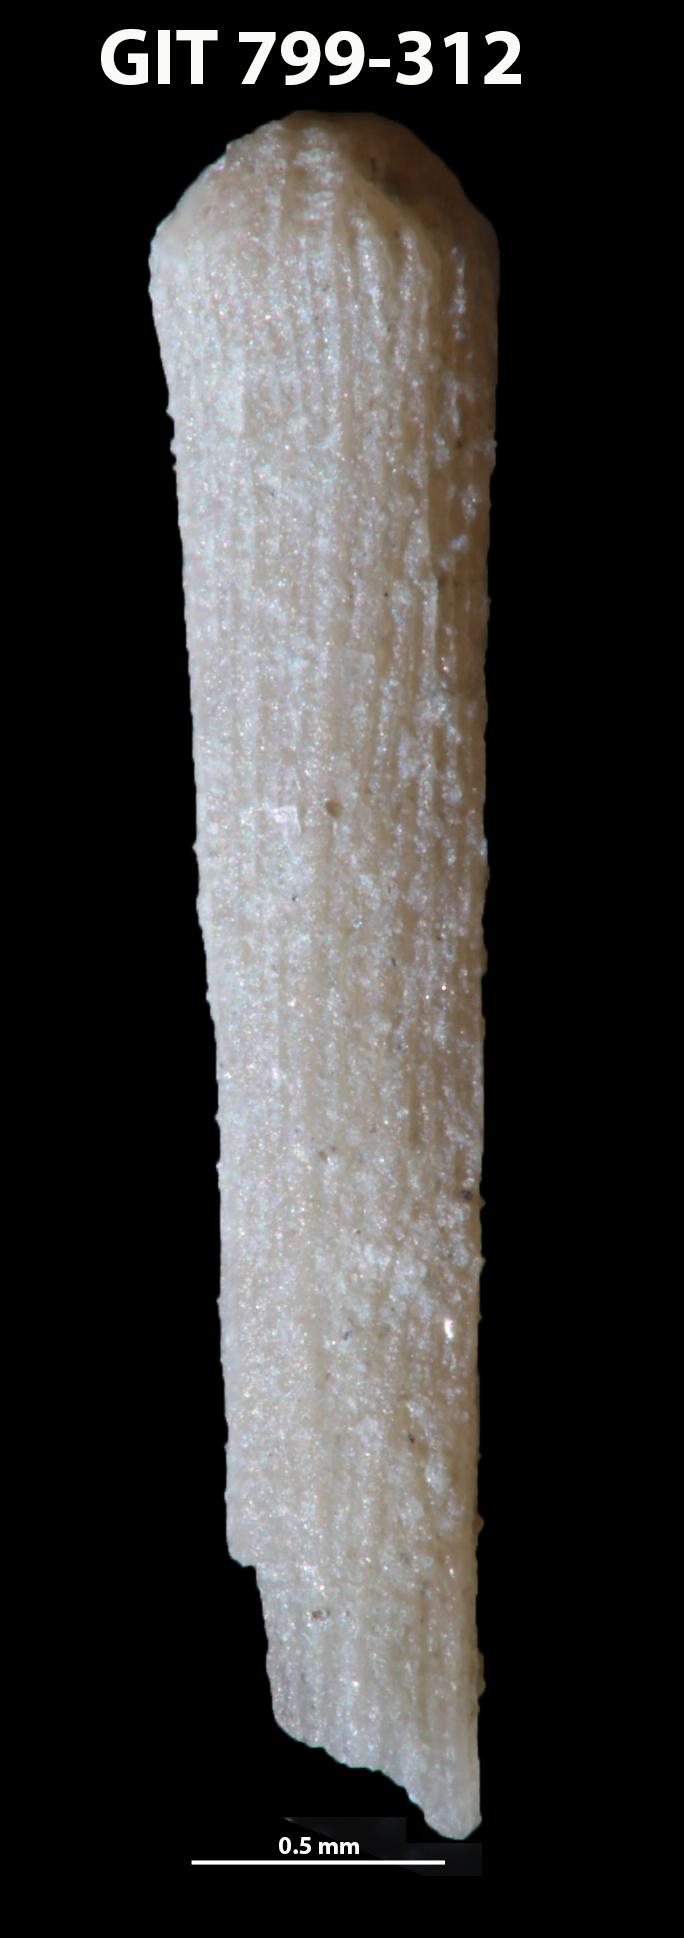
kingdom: Animalia
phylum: Echinodermata
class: Echinoidea
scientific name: Echinoidea
